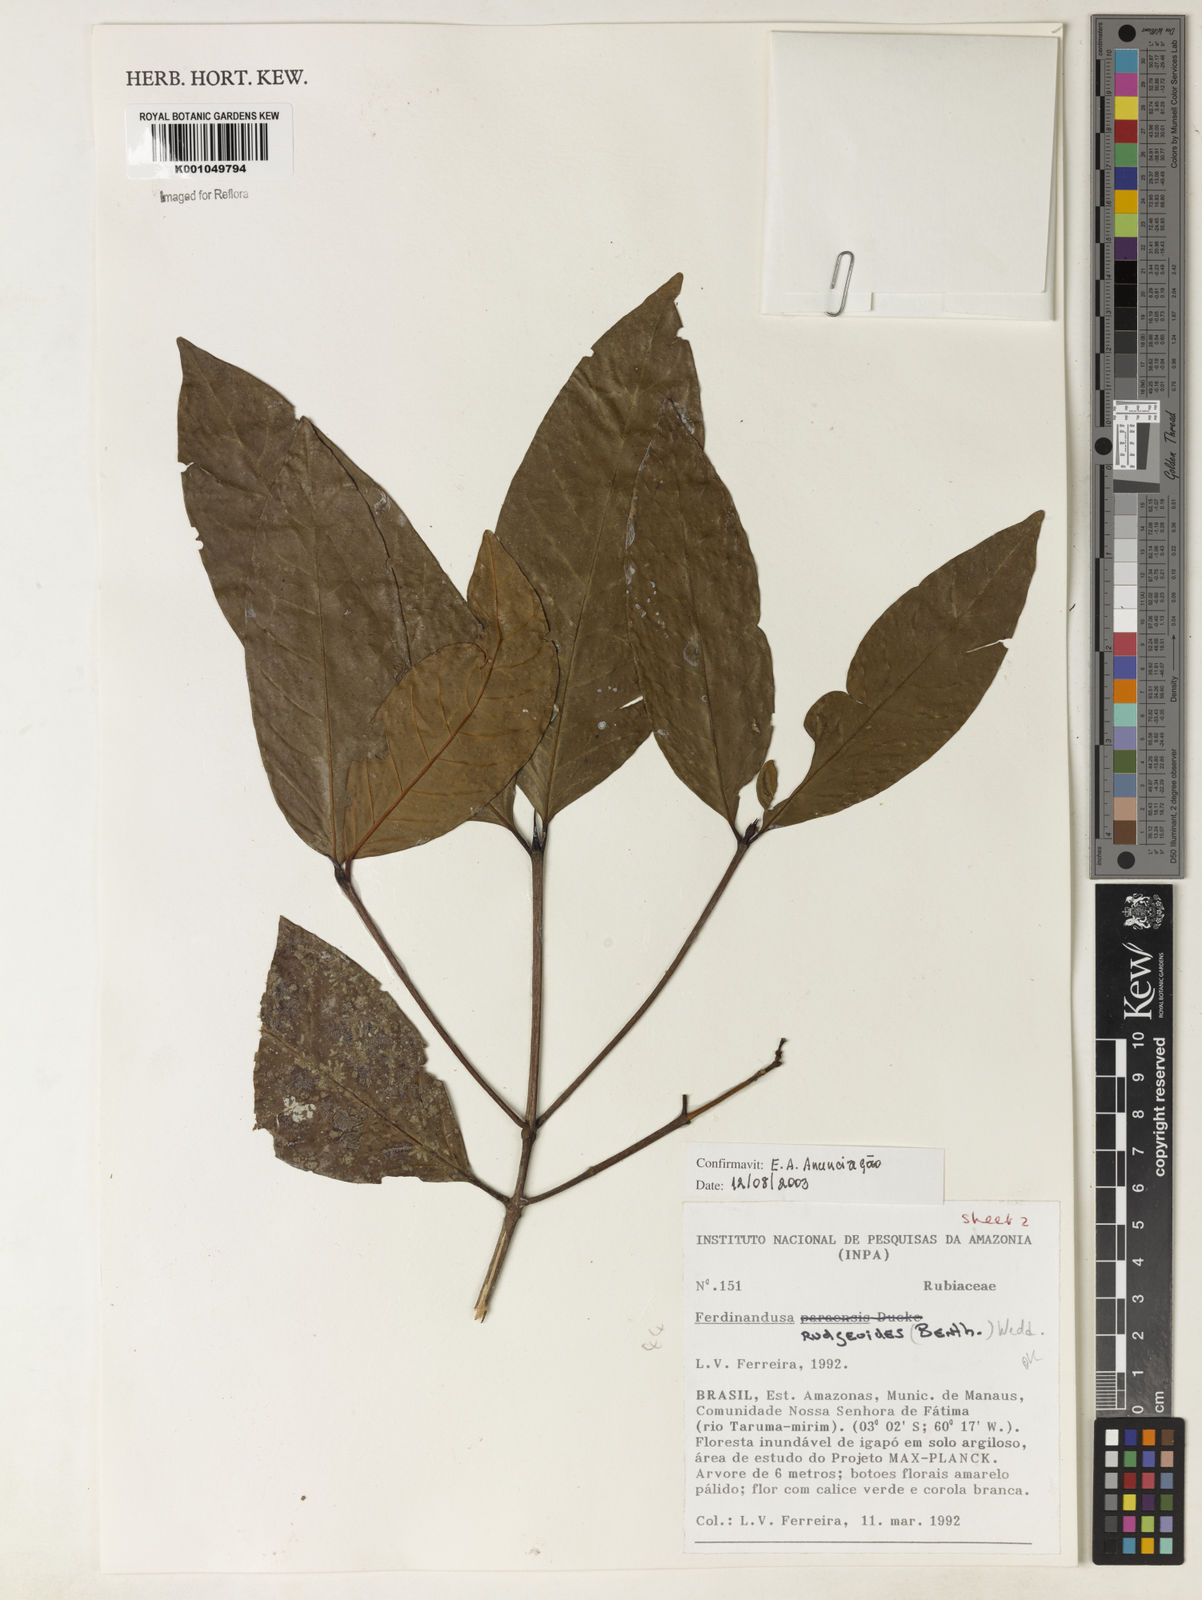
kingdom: Plantae
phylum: Tracheophyta
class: Magnoliopsida
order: Gentianales
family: Rubiaceae
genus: Ferdinandusa
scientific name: Ferdinandusa rudgeoides
